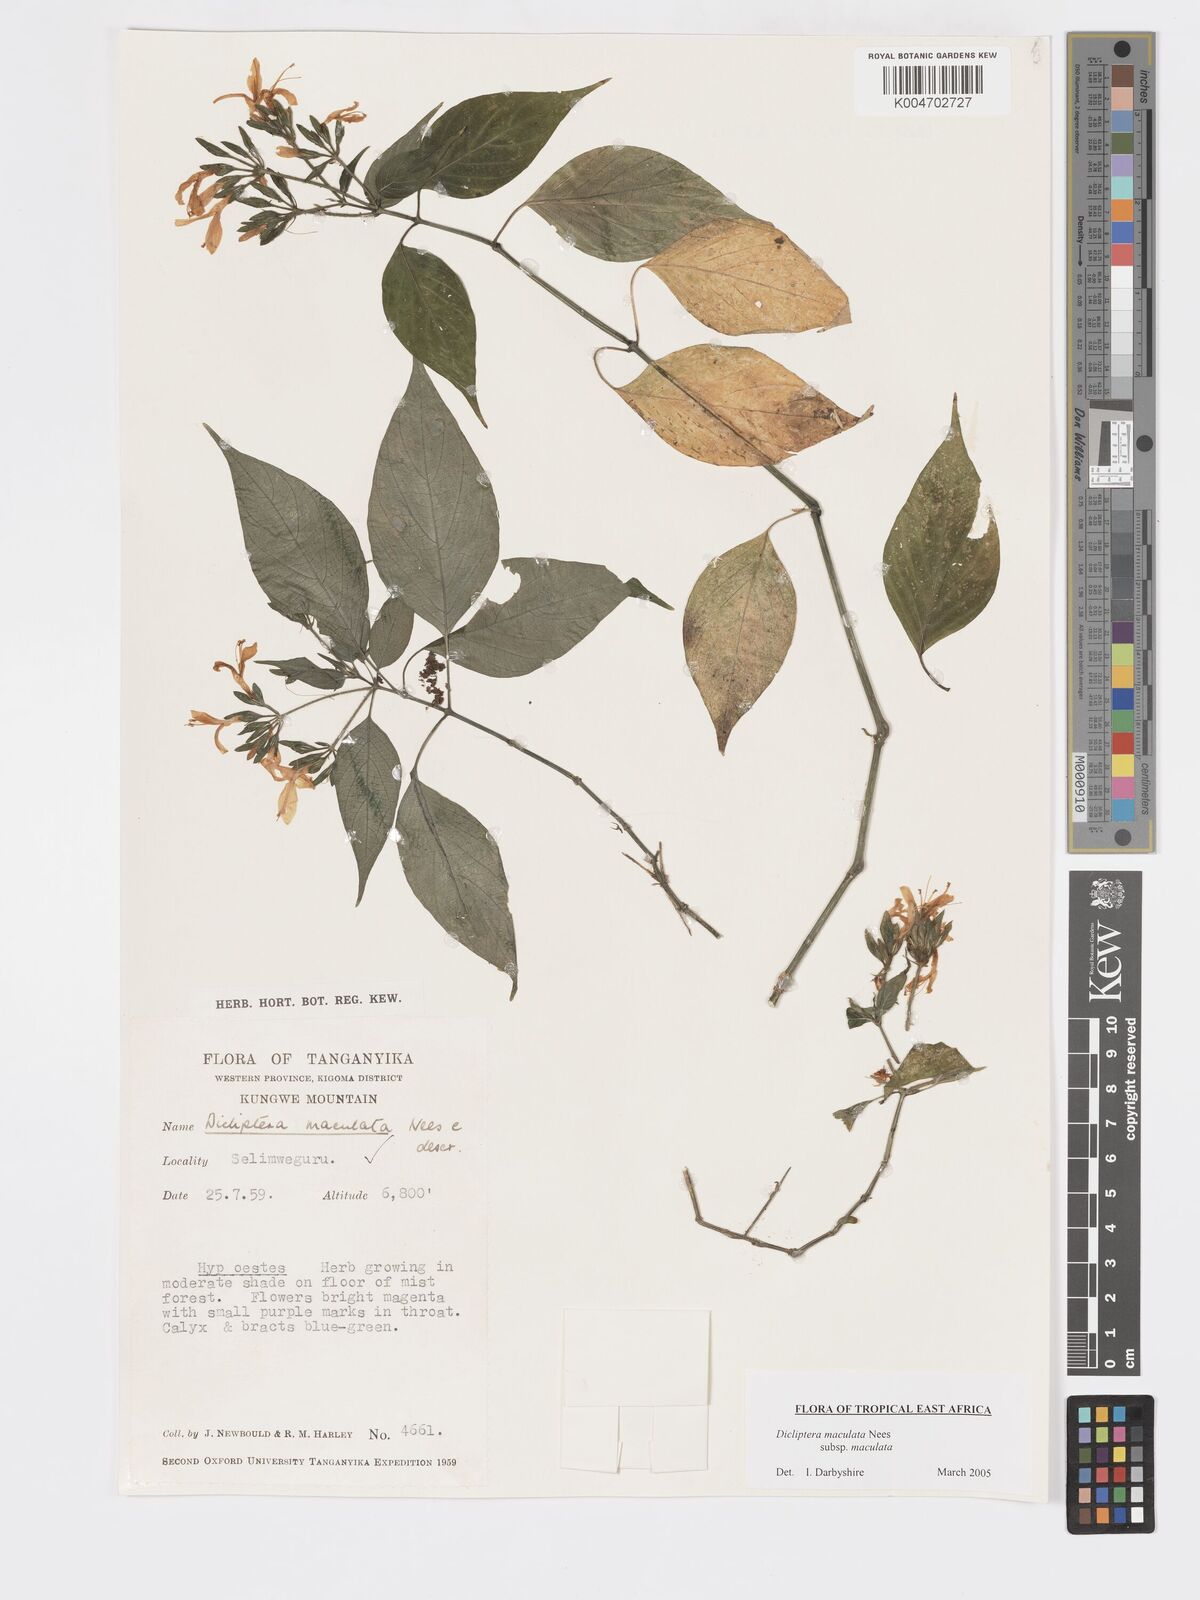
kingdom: Plantae
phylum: Tracheophyta
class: Magnoliopsida
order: Lamiales
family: Acanthaceae
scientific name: Acanthaceae
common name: Acanthaceae
